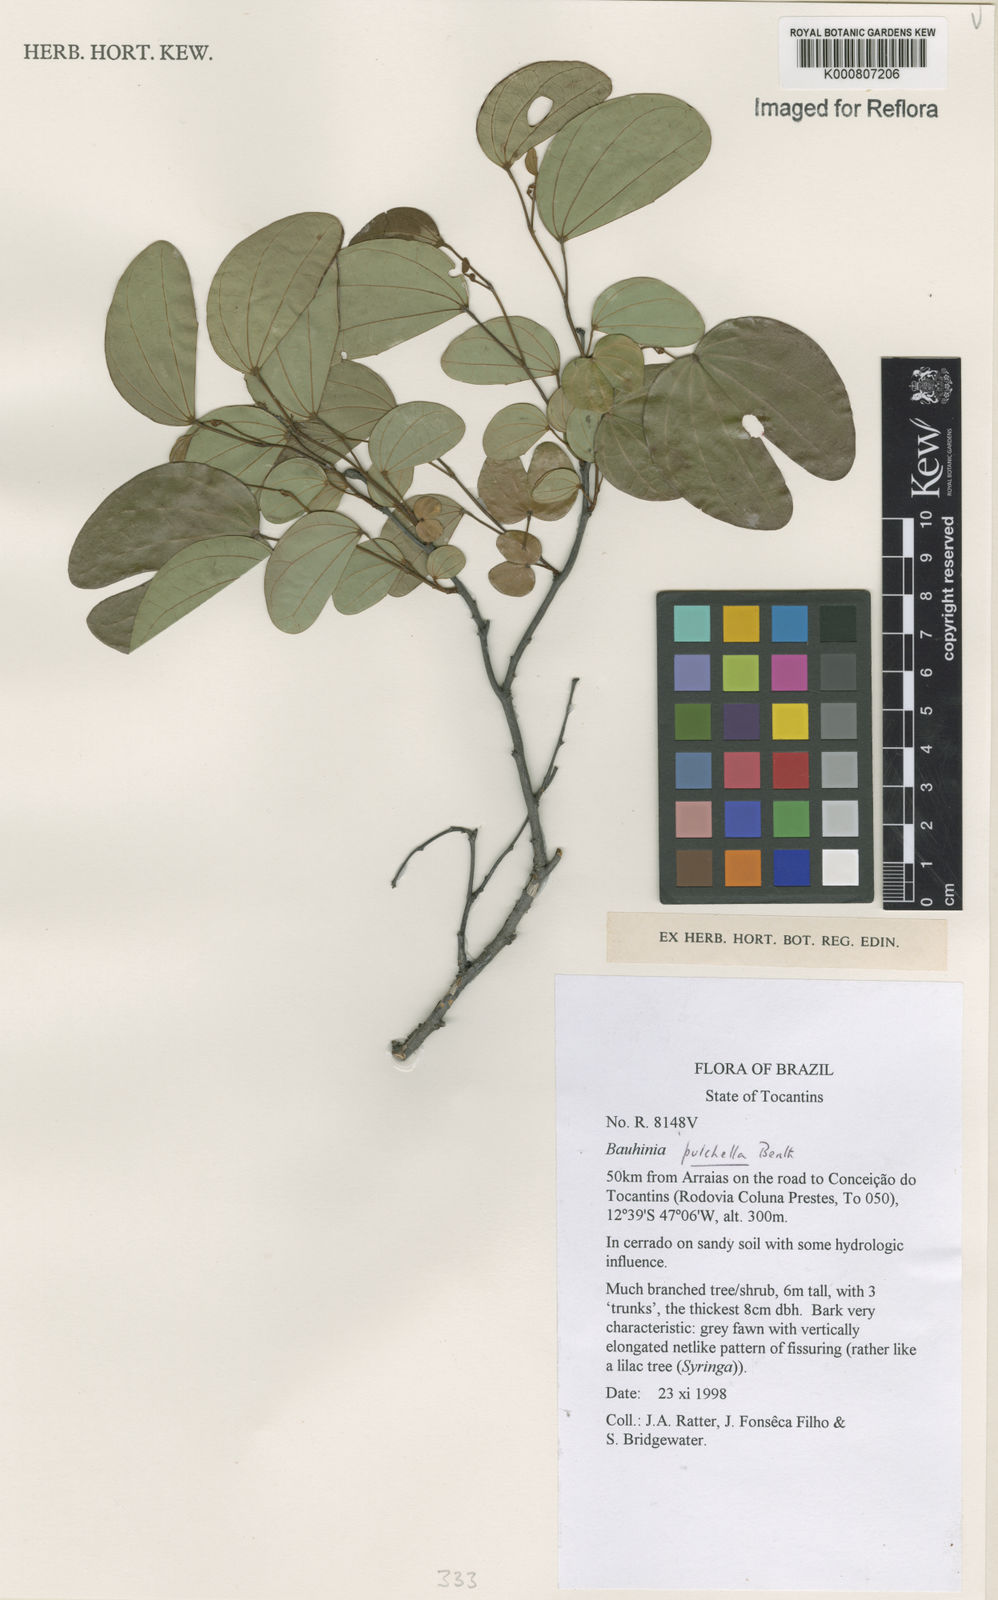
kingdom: Plantae
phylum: Tracheophyta
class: Magnoliopsida
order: Fabales
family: Fabaceae
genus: Bauhinia
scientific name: Bauhinia pulchella
